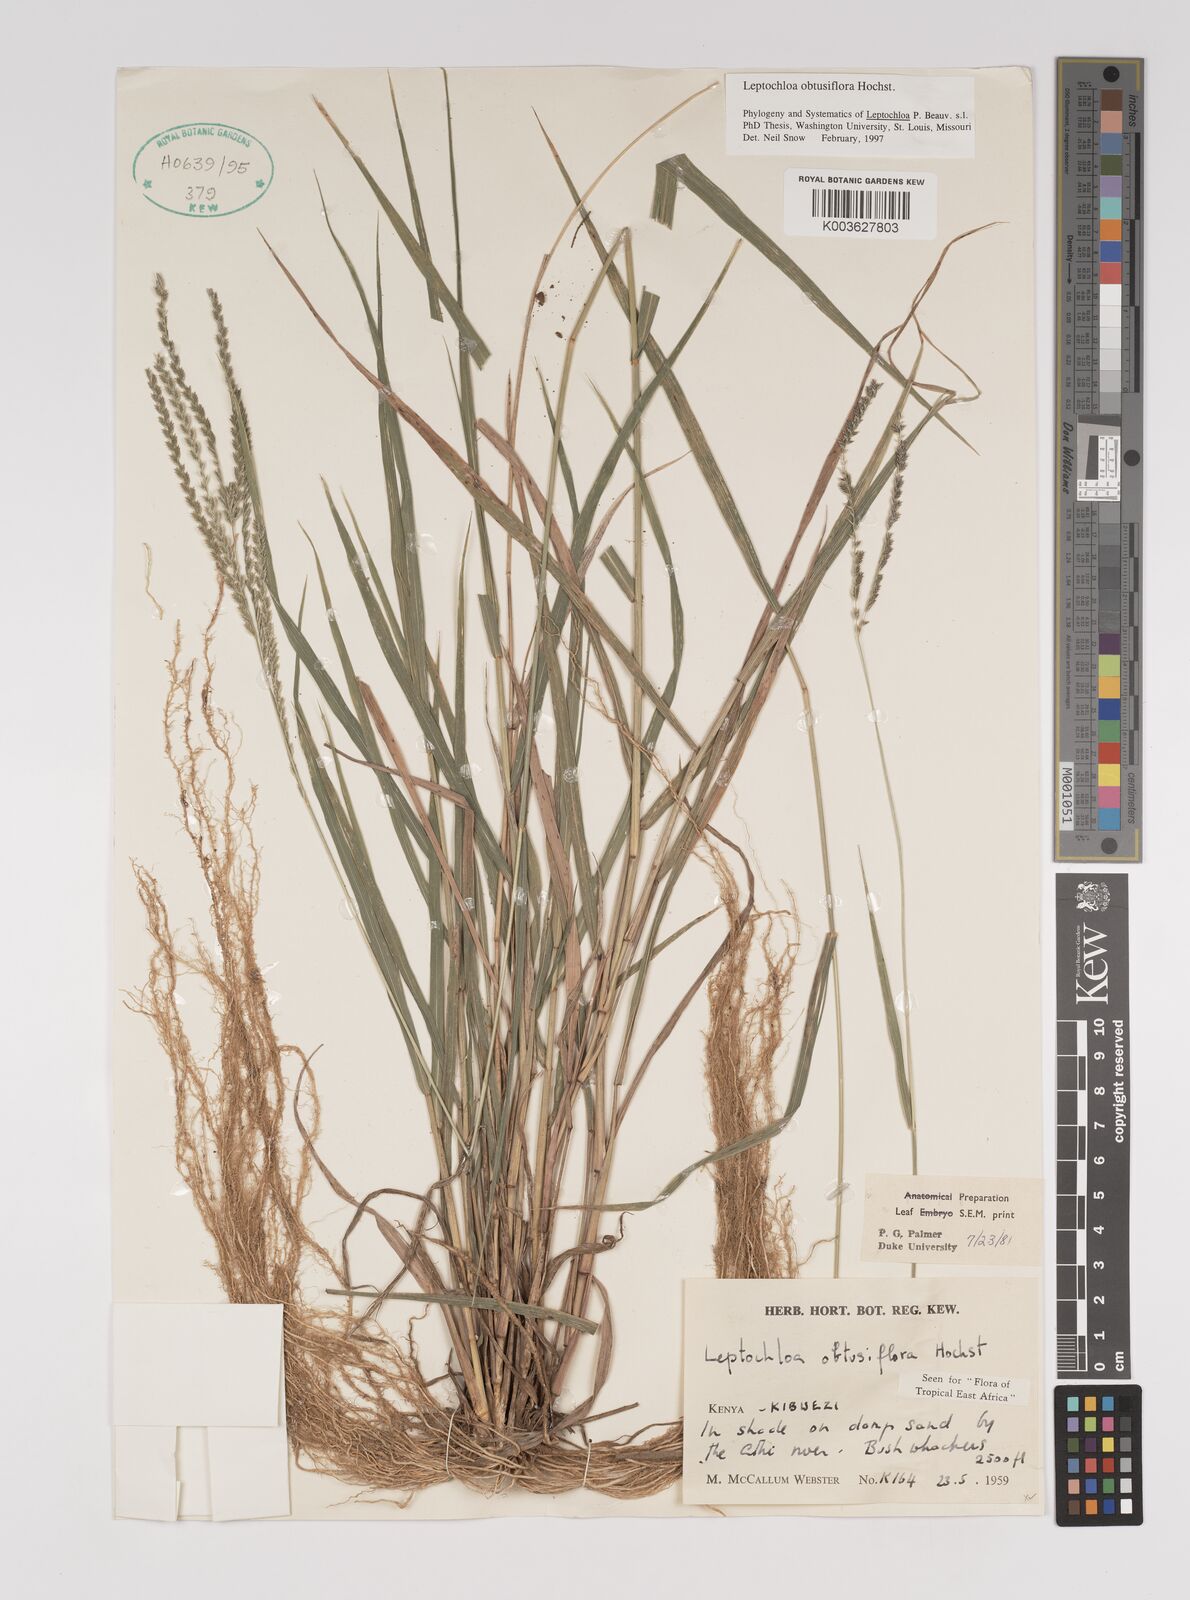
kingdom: Plantae
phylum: Tracheophyta
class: Liliopsida
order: Poales
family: Poaceae
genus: Disakisperma
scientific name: Disakisperma obtusiflorum
